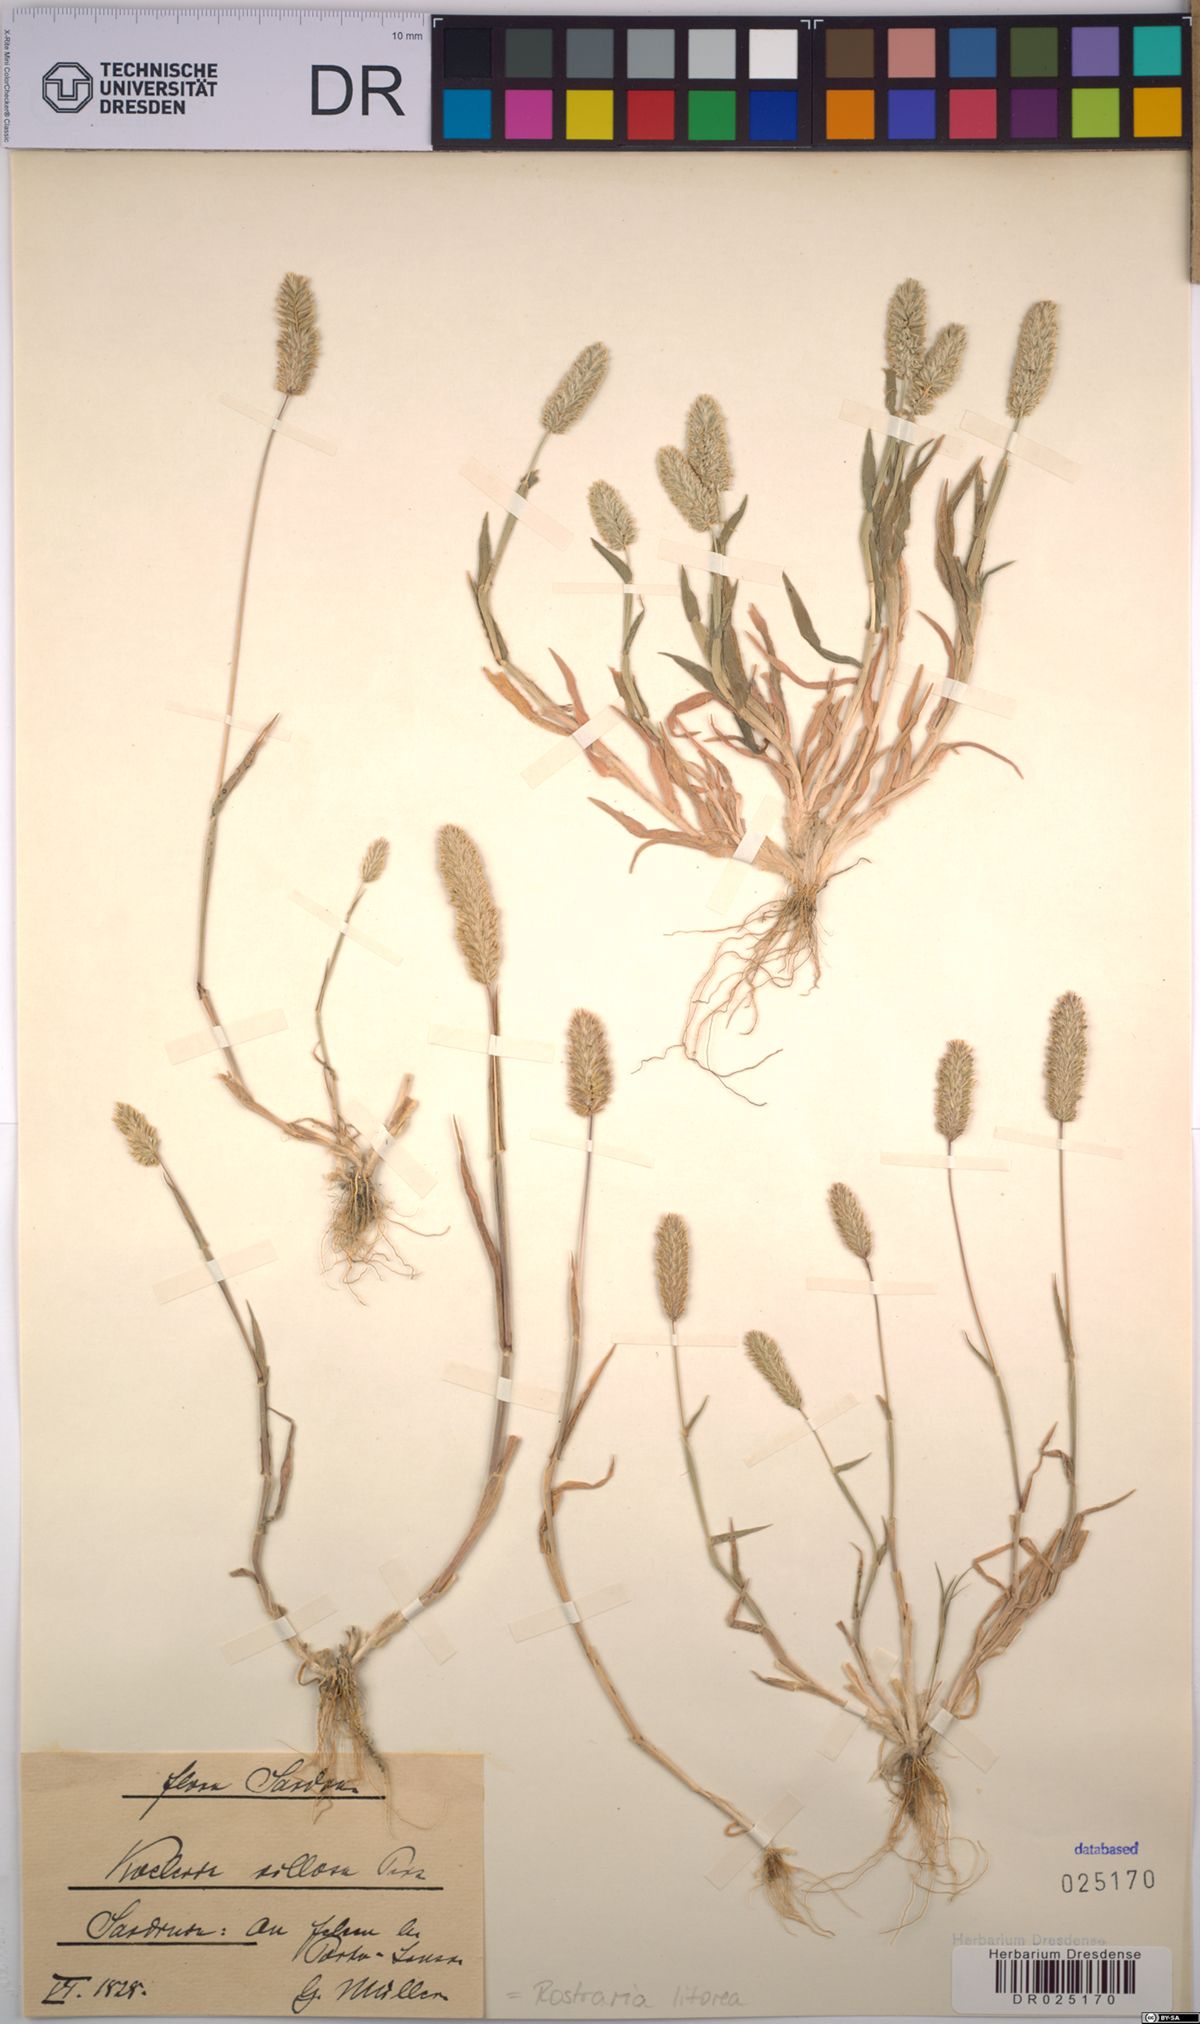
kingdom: Plantae
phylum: Tracheophyta
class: Liliopsida
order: Poales
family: Poaceae
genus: Rostraria
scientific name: Rostraria litorea
